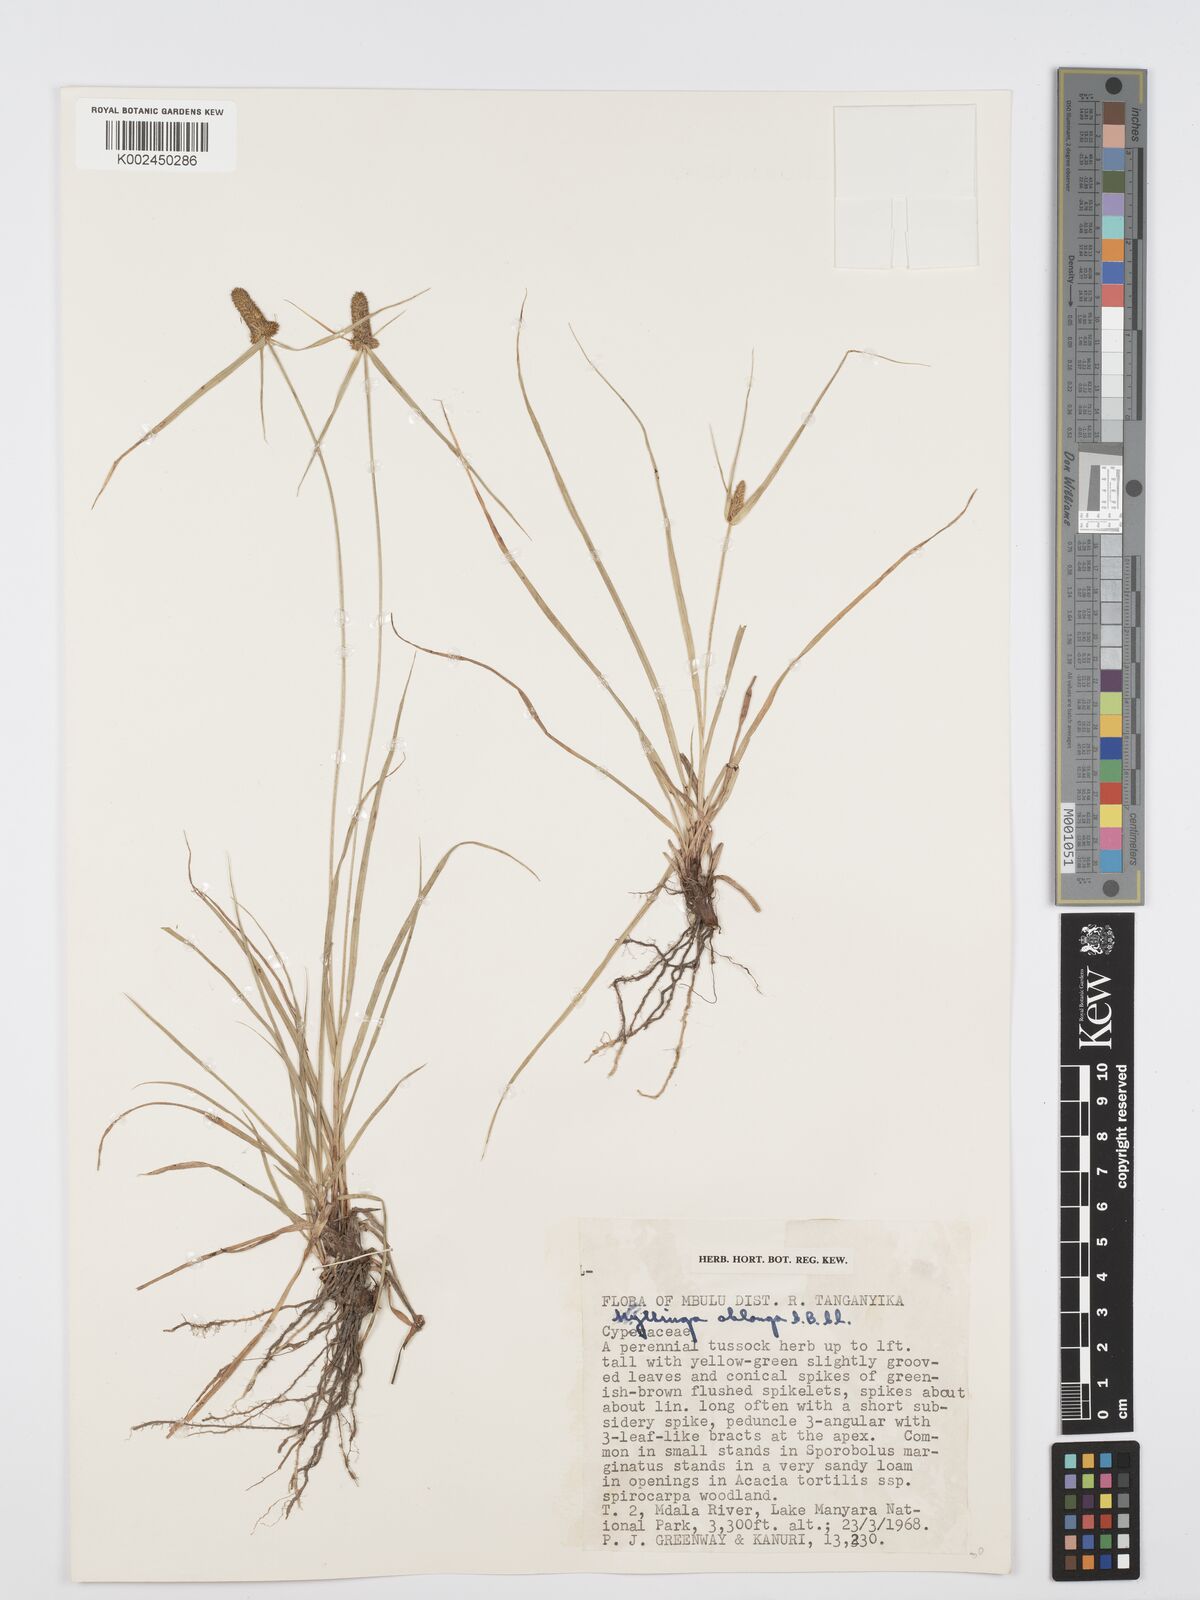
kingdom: Plantae
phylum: Tracheophyta
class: Liliopsida
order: Poales
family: Cyperaceae
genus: Cyperus
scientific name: Cyperus
